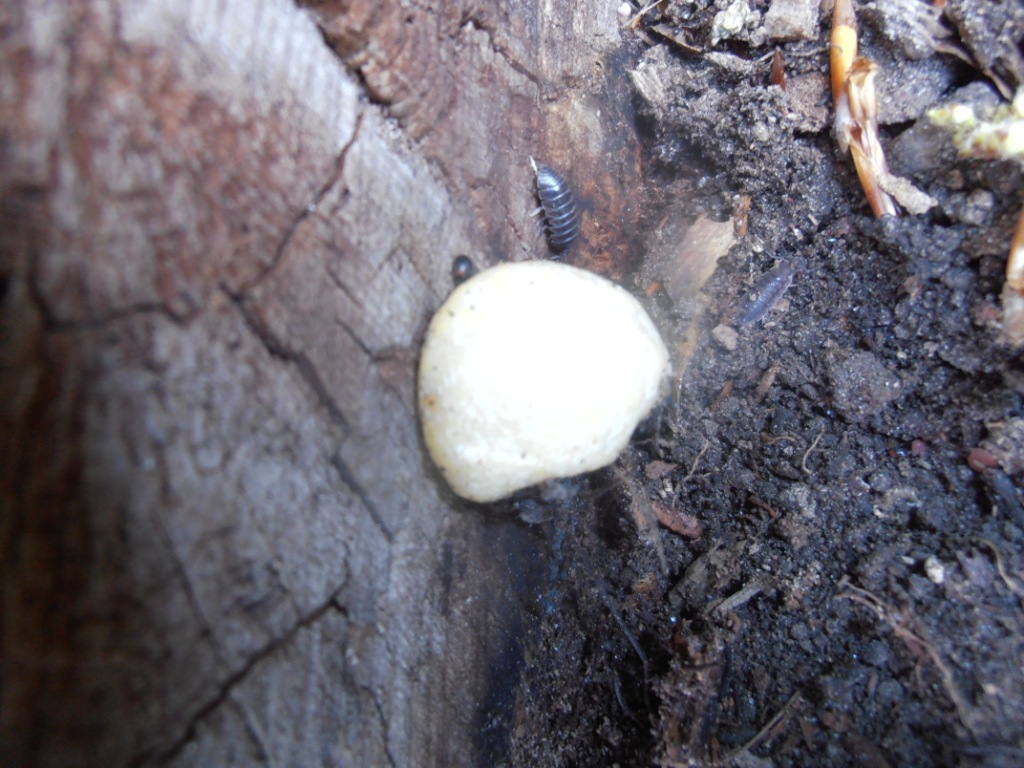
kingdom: Protozoa
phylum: Mycetozoa
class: Myxomycetes
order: Cribrariales
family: Tubiferaceae
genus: Reticularia
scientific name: Reticularia lycoperdon
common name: skinnende støvpude
